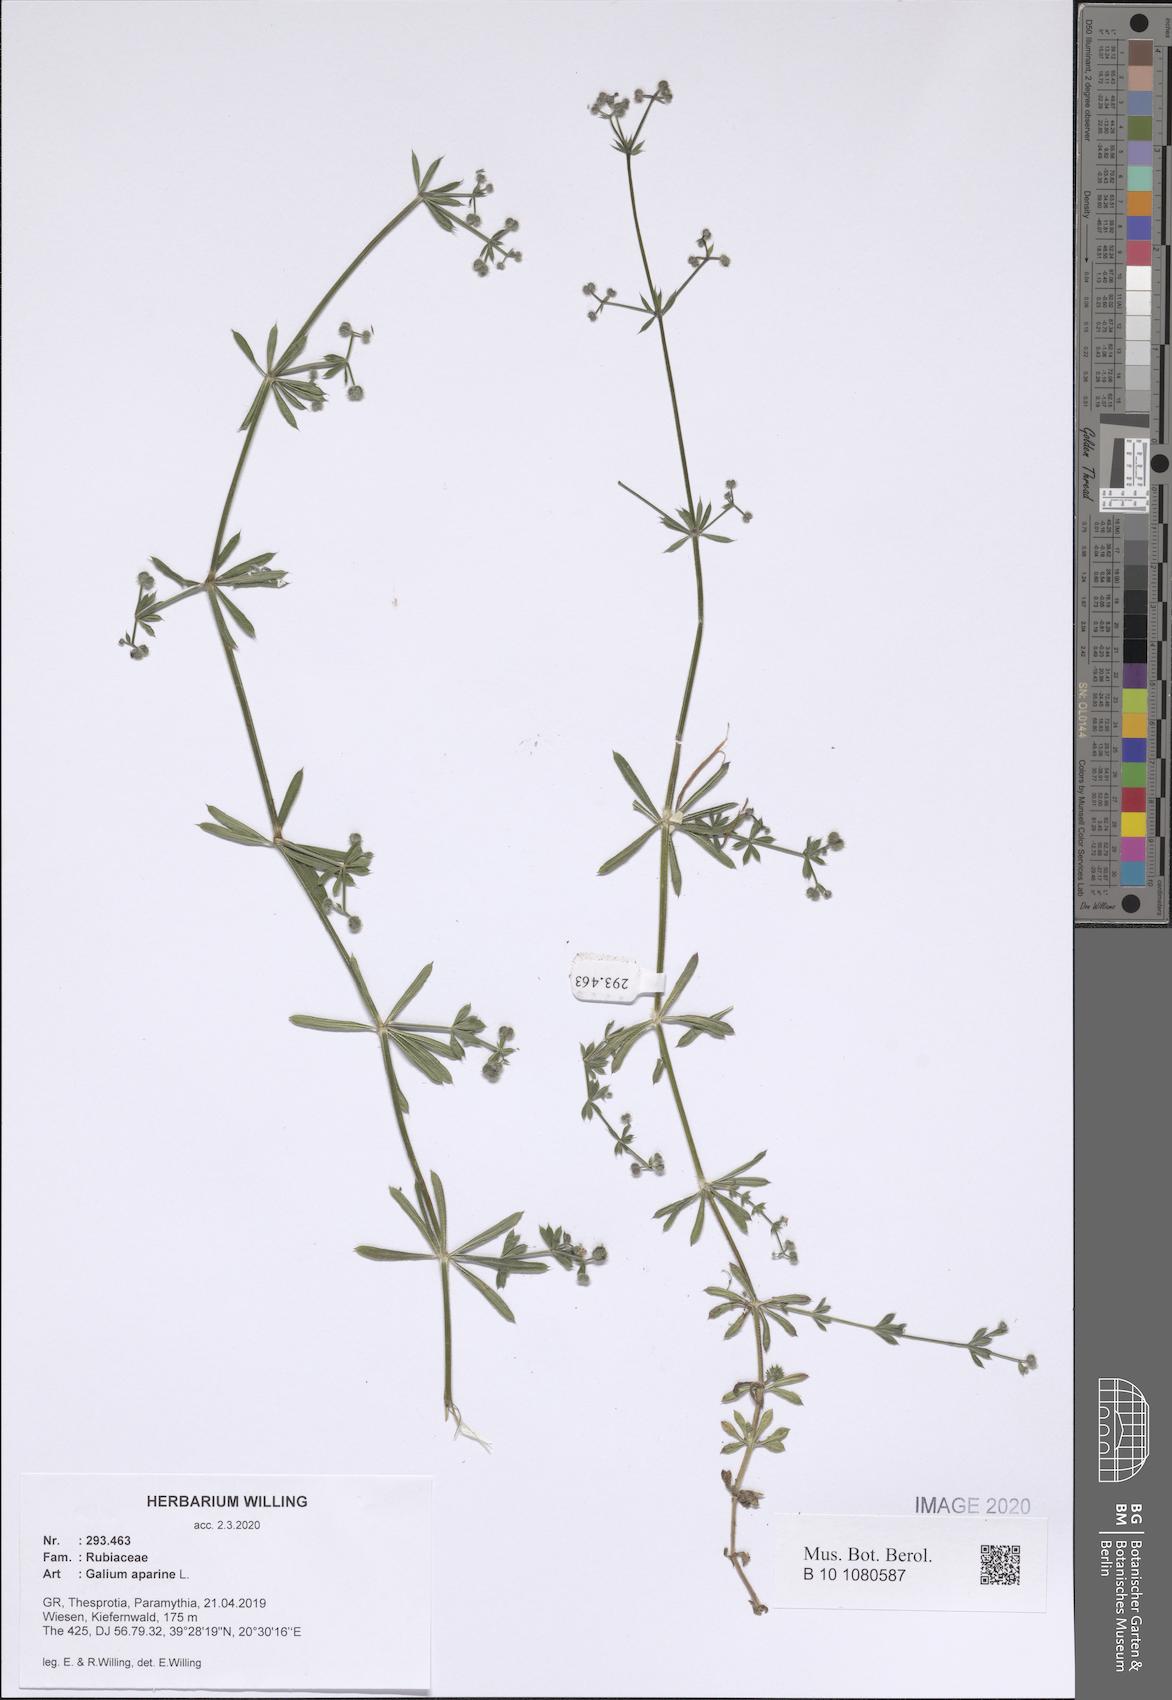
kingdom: Plantae
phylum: Tracheophyta
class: Magnoliopsida
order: Gentianales
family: Rubiaceae
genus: Galium
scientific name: Galium aparine
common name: Cleavers
